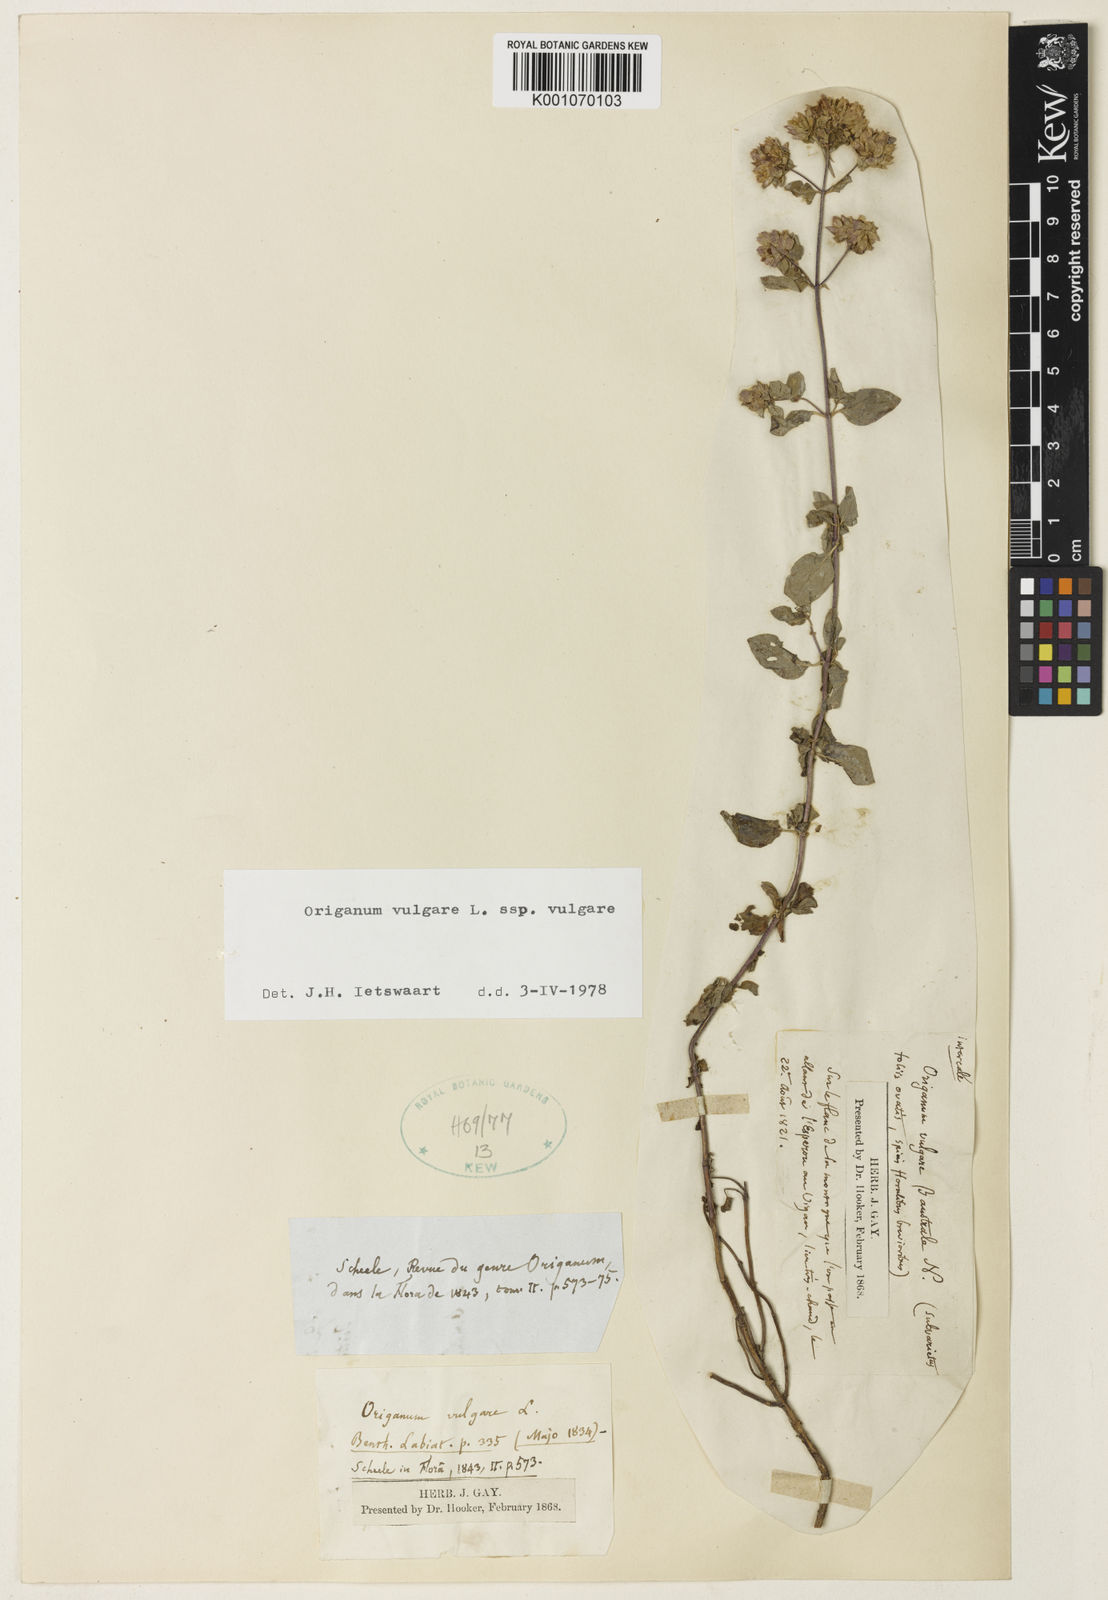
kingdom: Plantae
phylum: Tracheophyta
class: Magnoliopsida
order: Lamiales
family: Lamiaceae
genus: Origanum
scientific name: Origanum vulgare
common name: Wild marjoram
